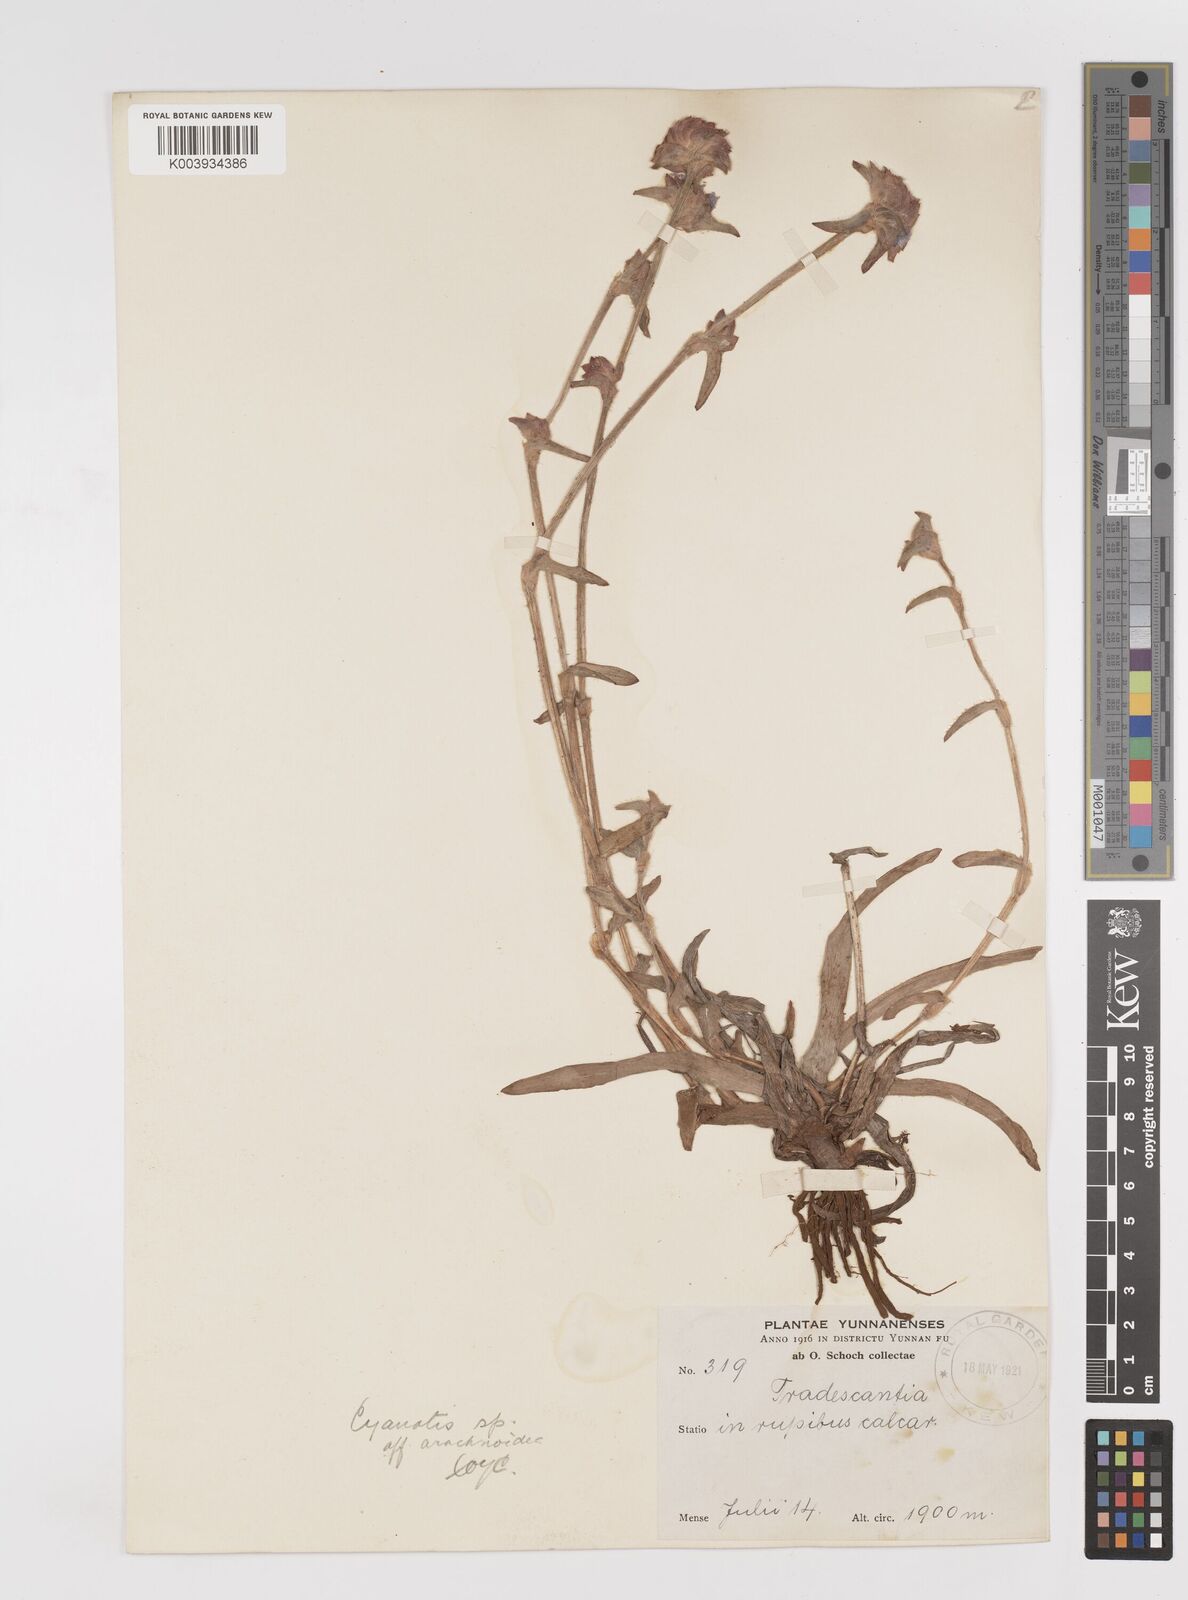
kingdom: Plantae
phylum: Tracheophyta
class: Liliopsida
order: Commelinales
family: Commelinaceae
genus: Cyanotis
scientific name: Cyanotis
